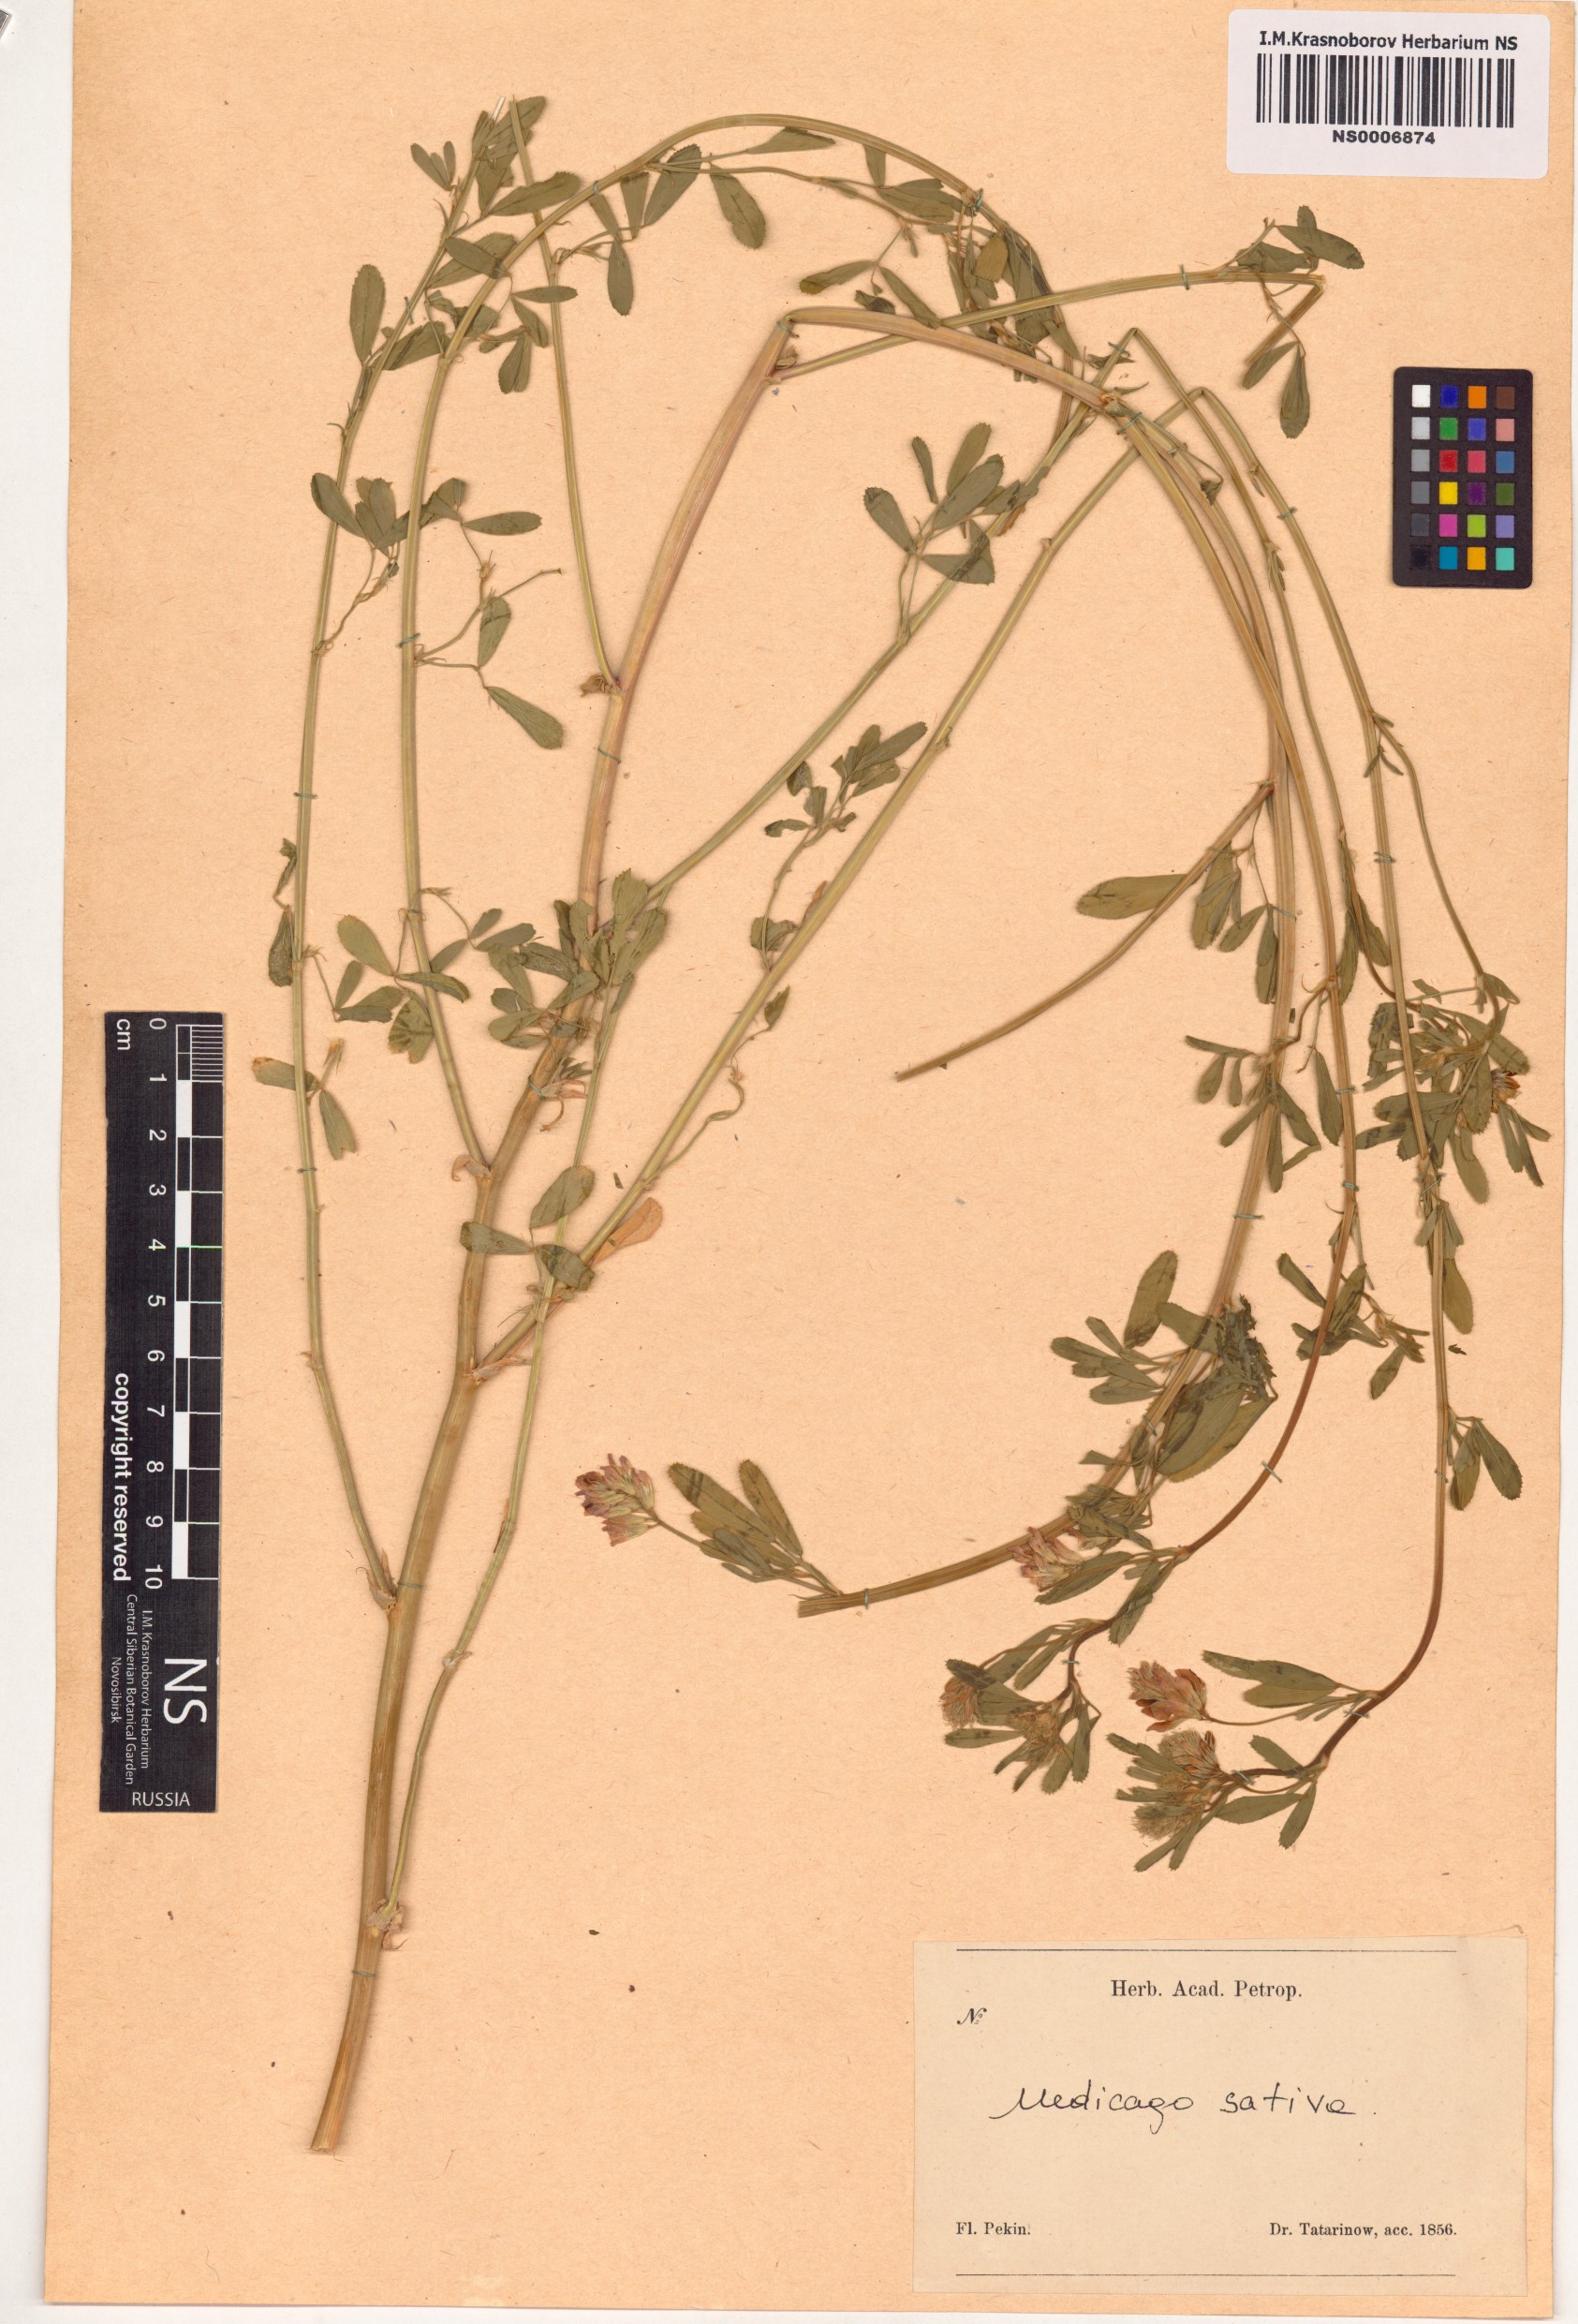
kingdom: Plantae
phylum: Tracheophyta
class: Magnoliopsida
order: Fabales
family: Fabaceae
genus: Medicago
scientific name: Medicago sativa
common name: Alfalfa
